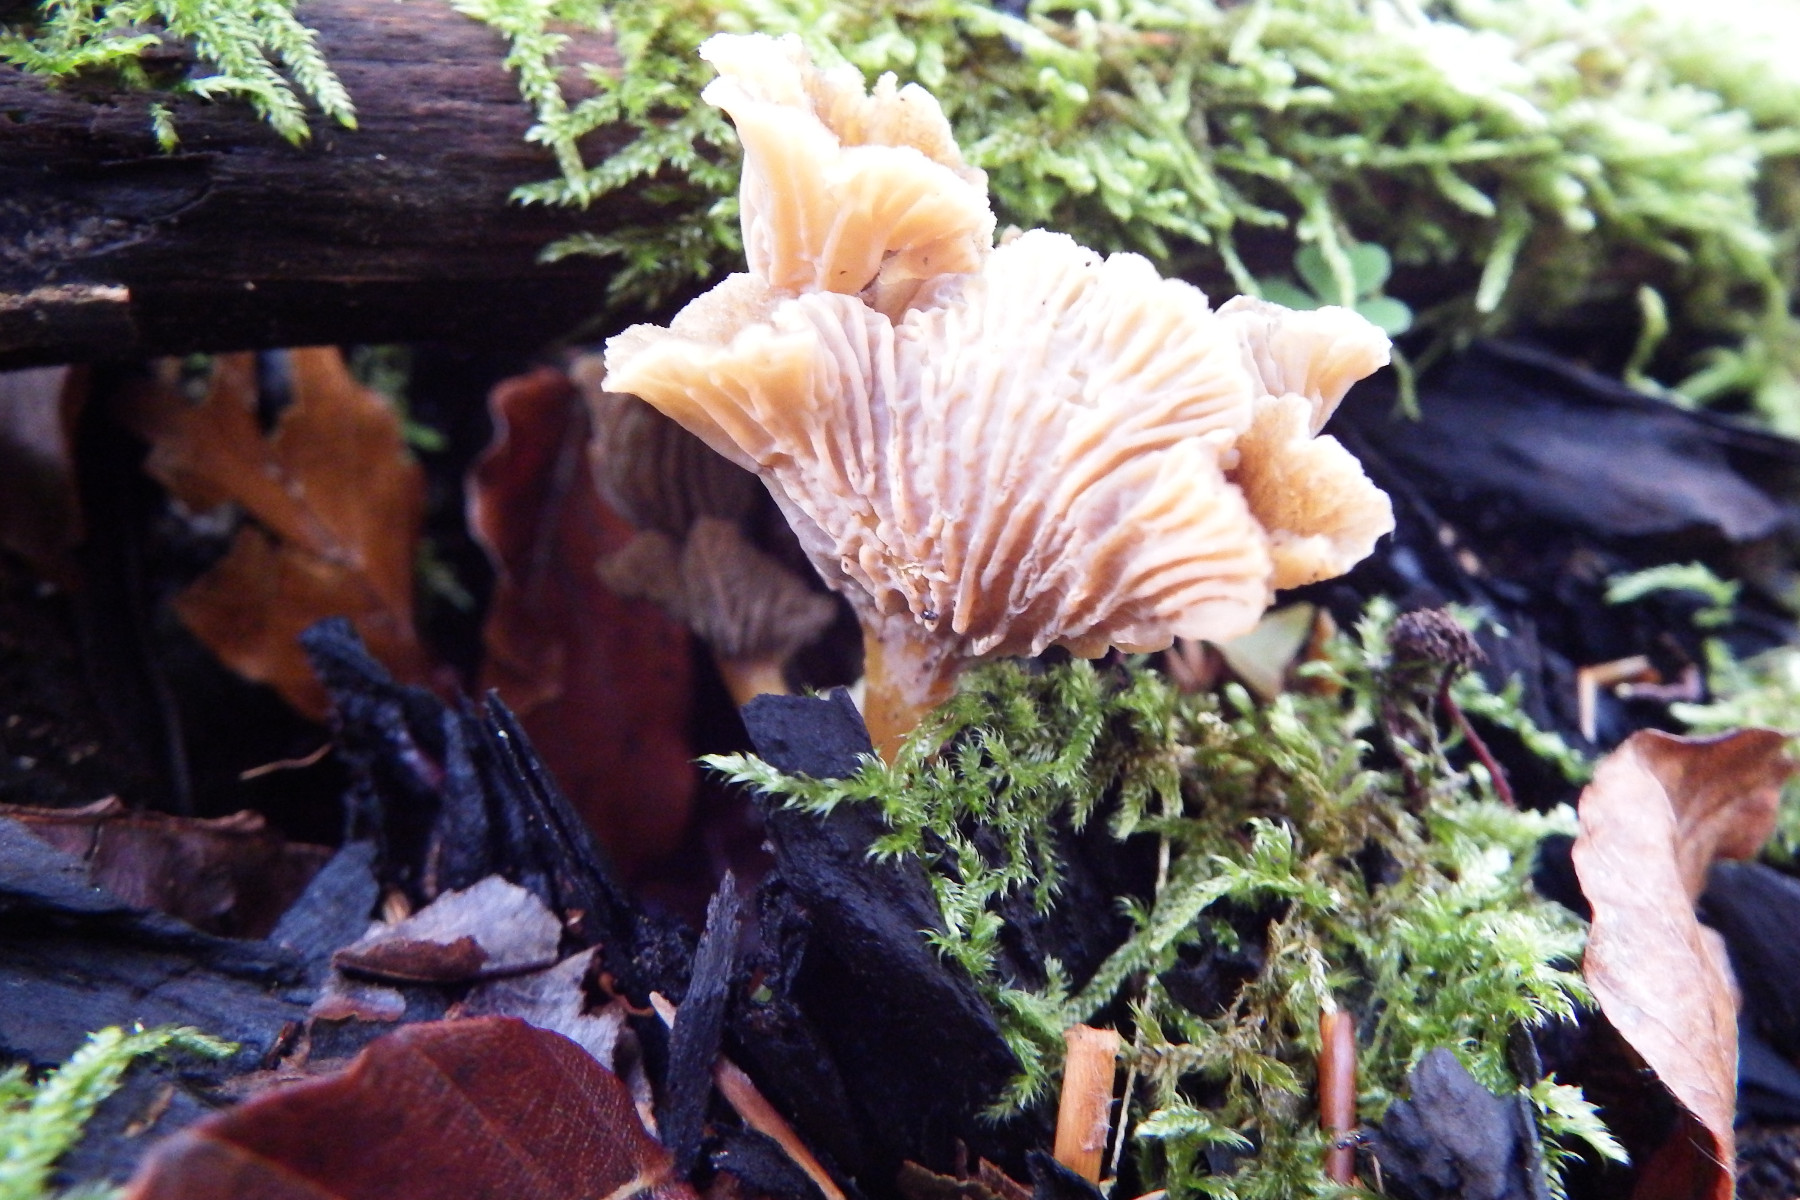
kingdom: Fungi
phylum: Basidiomycota
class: Agaricomycetes
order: Cantharellales
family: Hydnaceae
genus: Craterellus
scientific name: Craterellus tubaeformis
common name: tragt-kantarel
